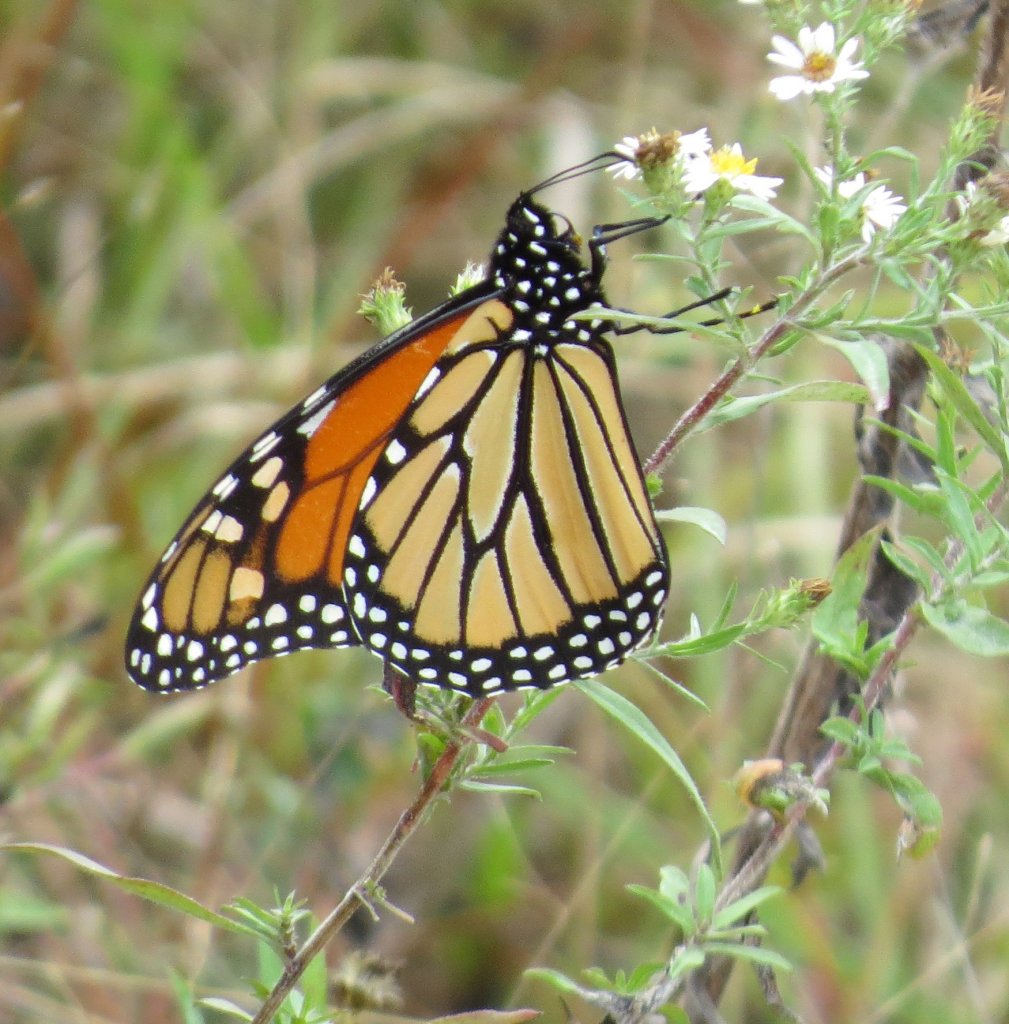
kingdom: Animalia
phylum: Arthropoda
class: Insecta
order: Lepidoptera
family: Nymphalidae
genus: Danaus
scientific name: Danaus plexippus
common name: Monarch
